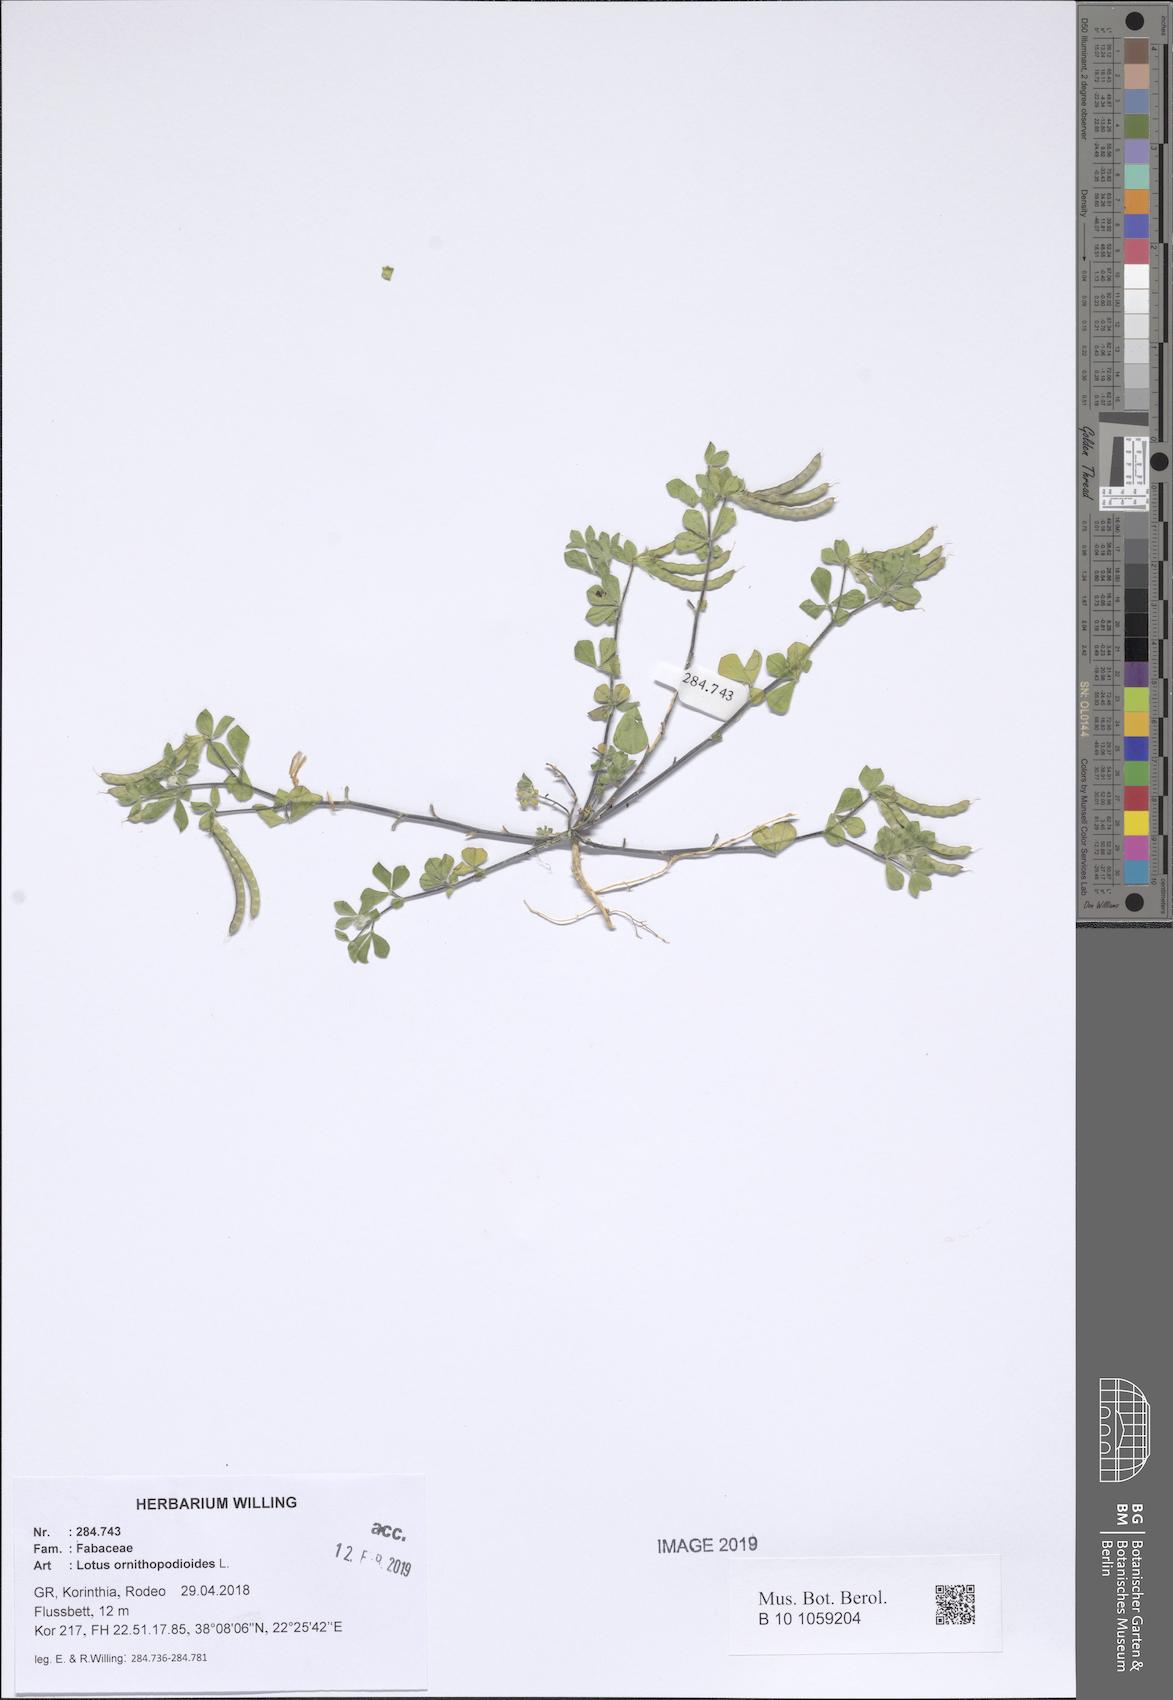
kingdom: Plantae
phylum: Tracheophyta
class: Magnoliopsida
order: Fabales
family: Fabaceae
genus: Lotus
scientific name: Lotus ornithopodioides
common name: Southern bird's-foot trefoil
